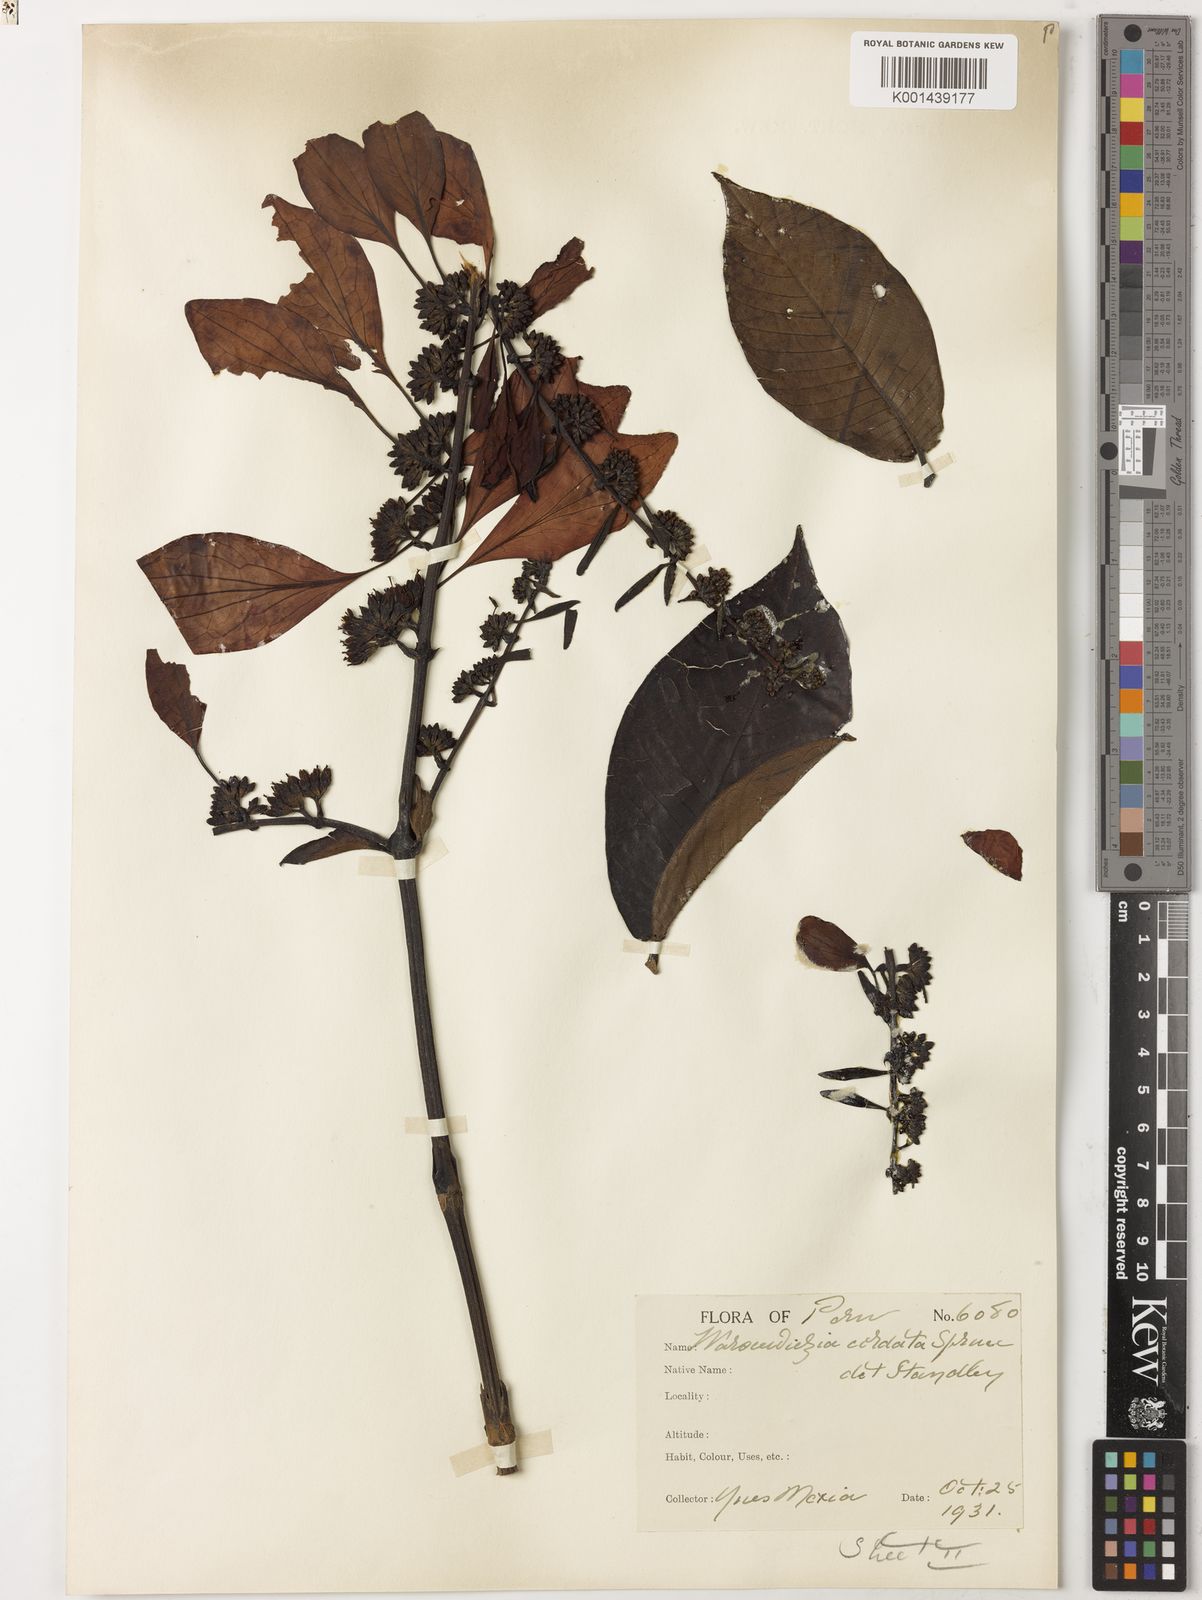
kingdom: Plantae
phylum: Tracheophyta
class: Magnoliopsida
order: Gentianales
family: Rubiaceae
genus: Warszewiczia
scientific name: Warszewiczia
